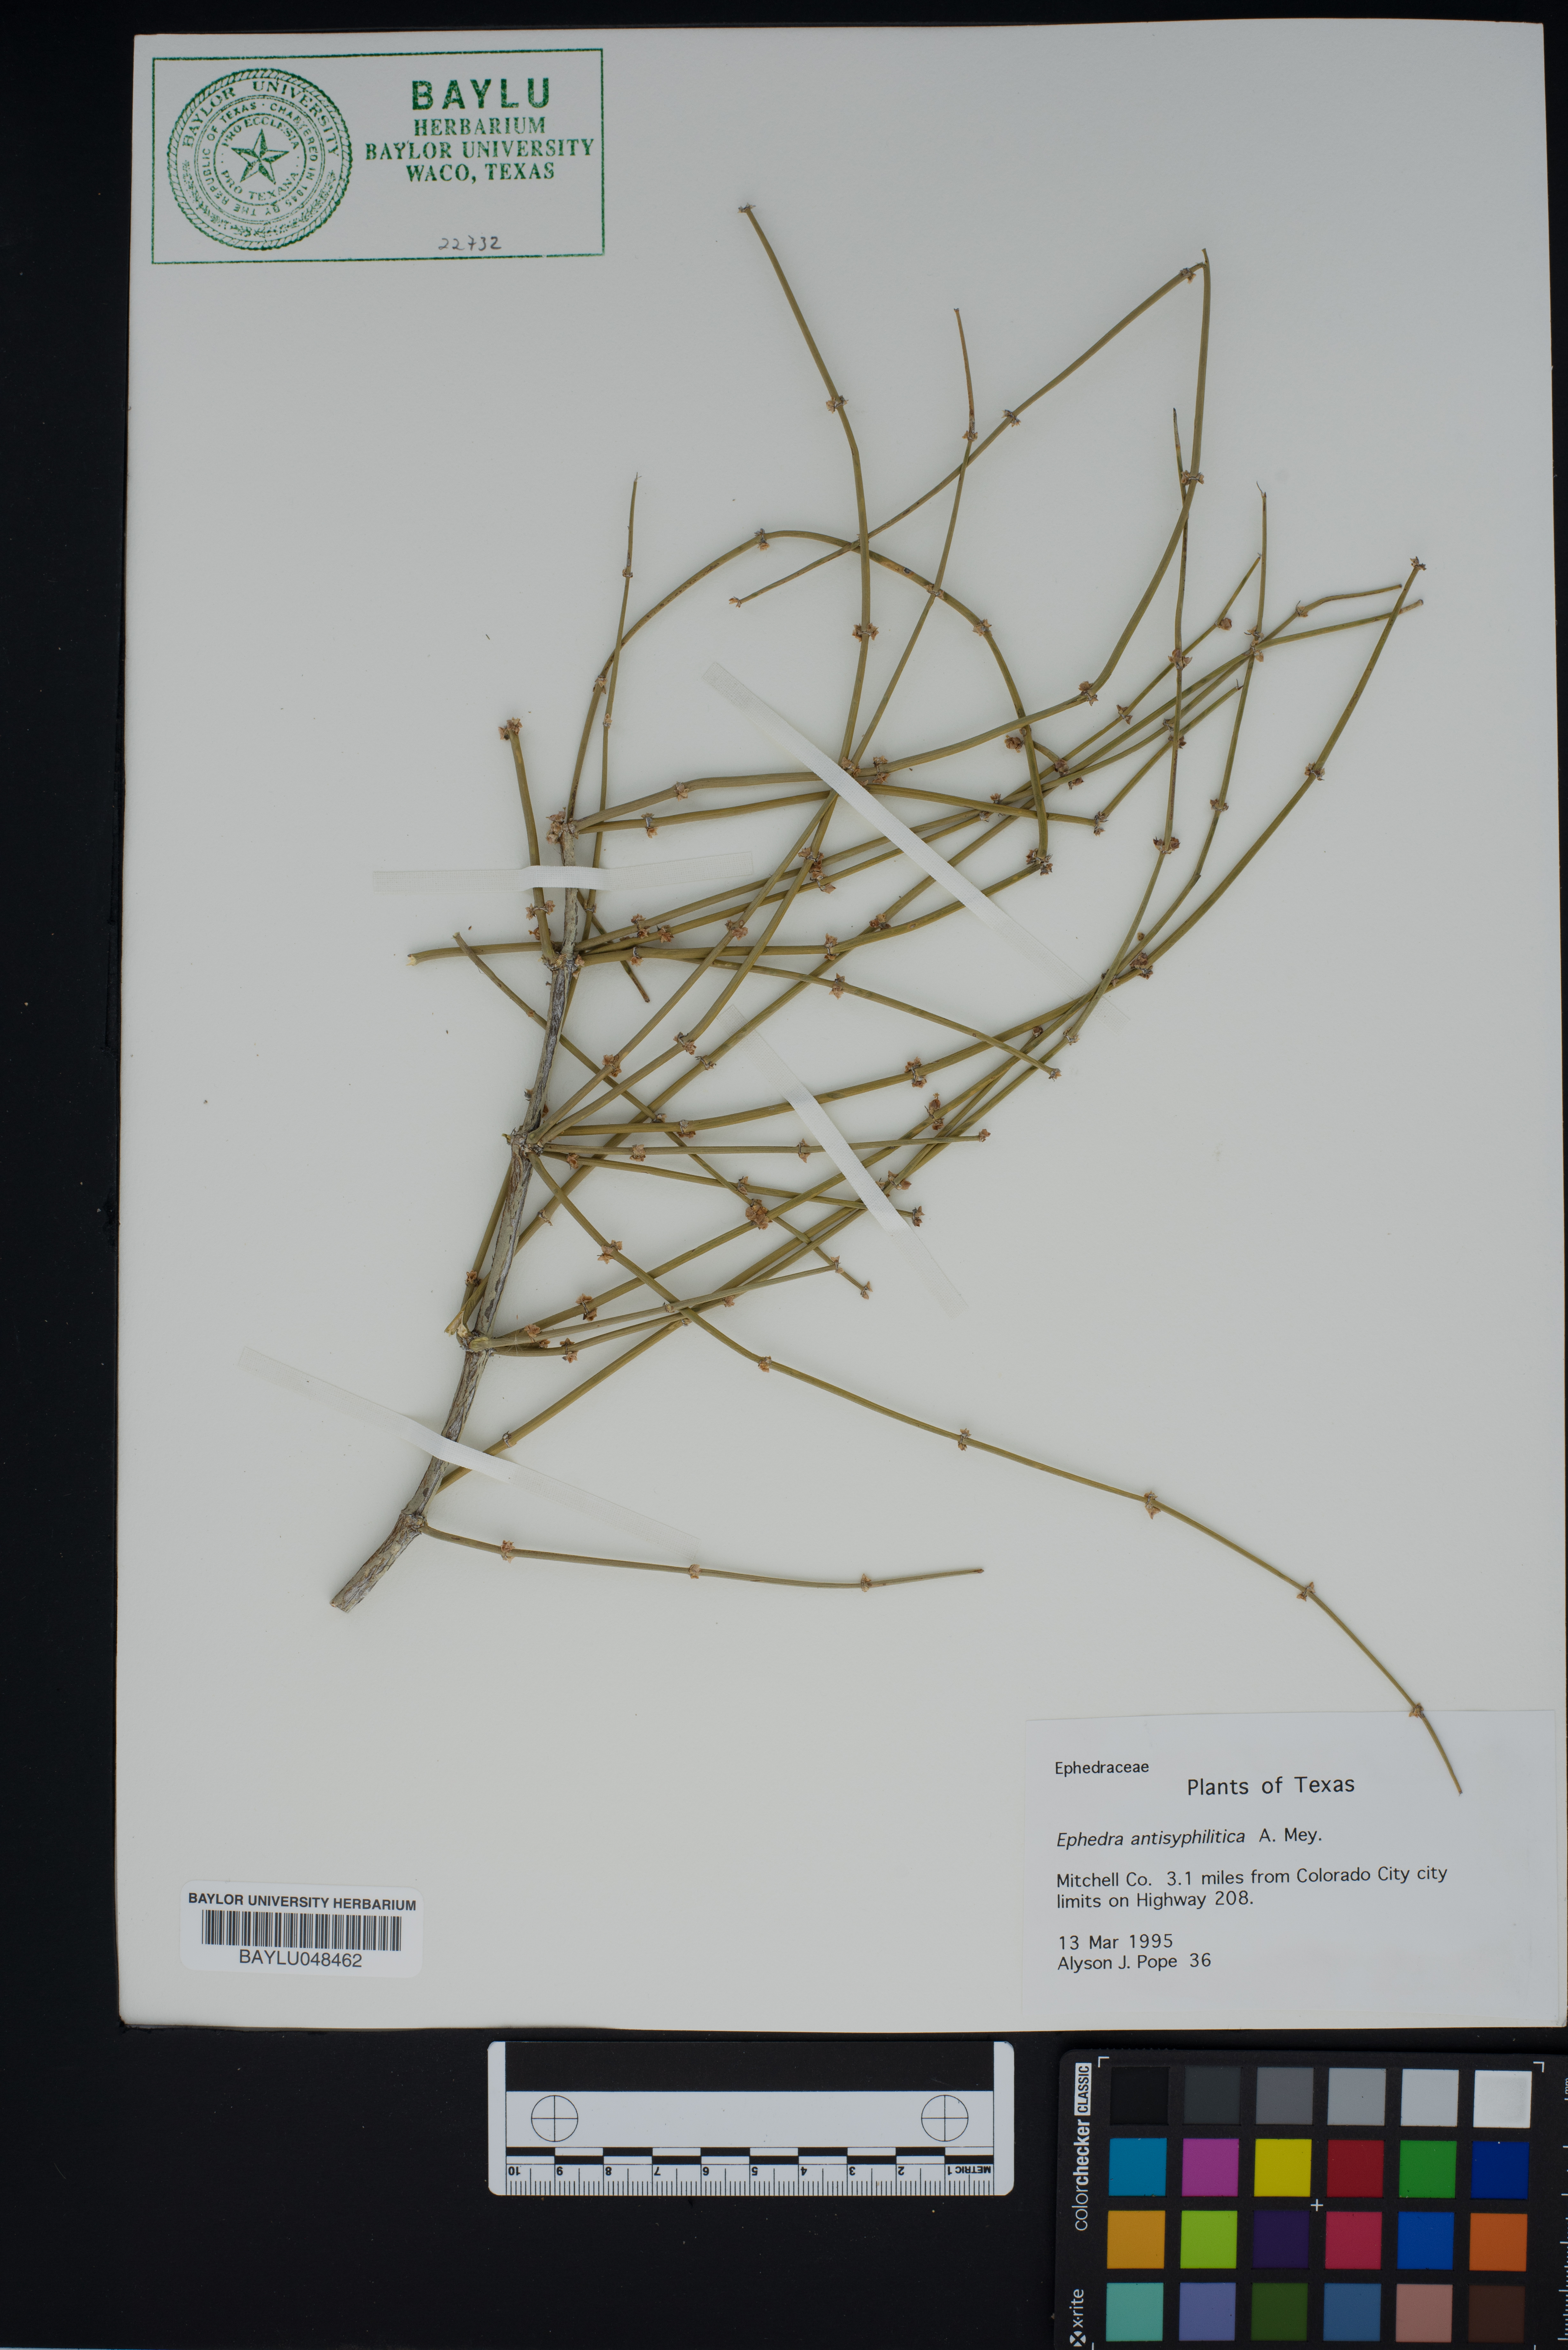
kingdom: Plantae
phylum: Tracheophyta
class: Gnetopsida
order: Ephedrales
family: Ephedraceae
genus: Ephedra
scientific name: Ephedra antisyphilitica
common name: Clipweed
